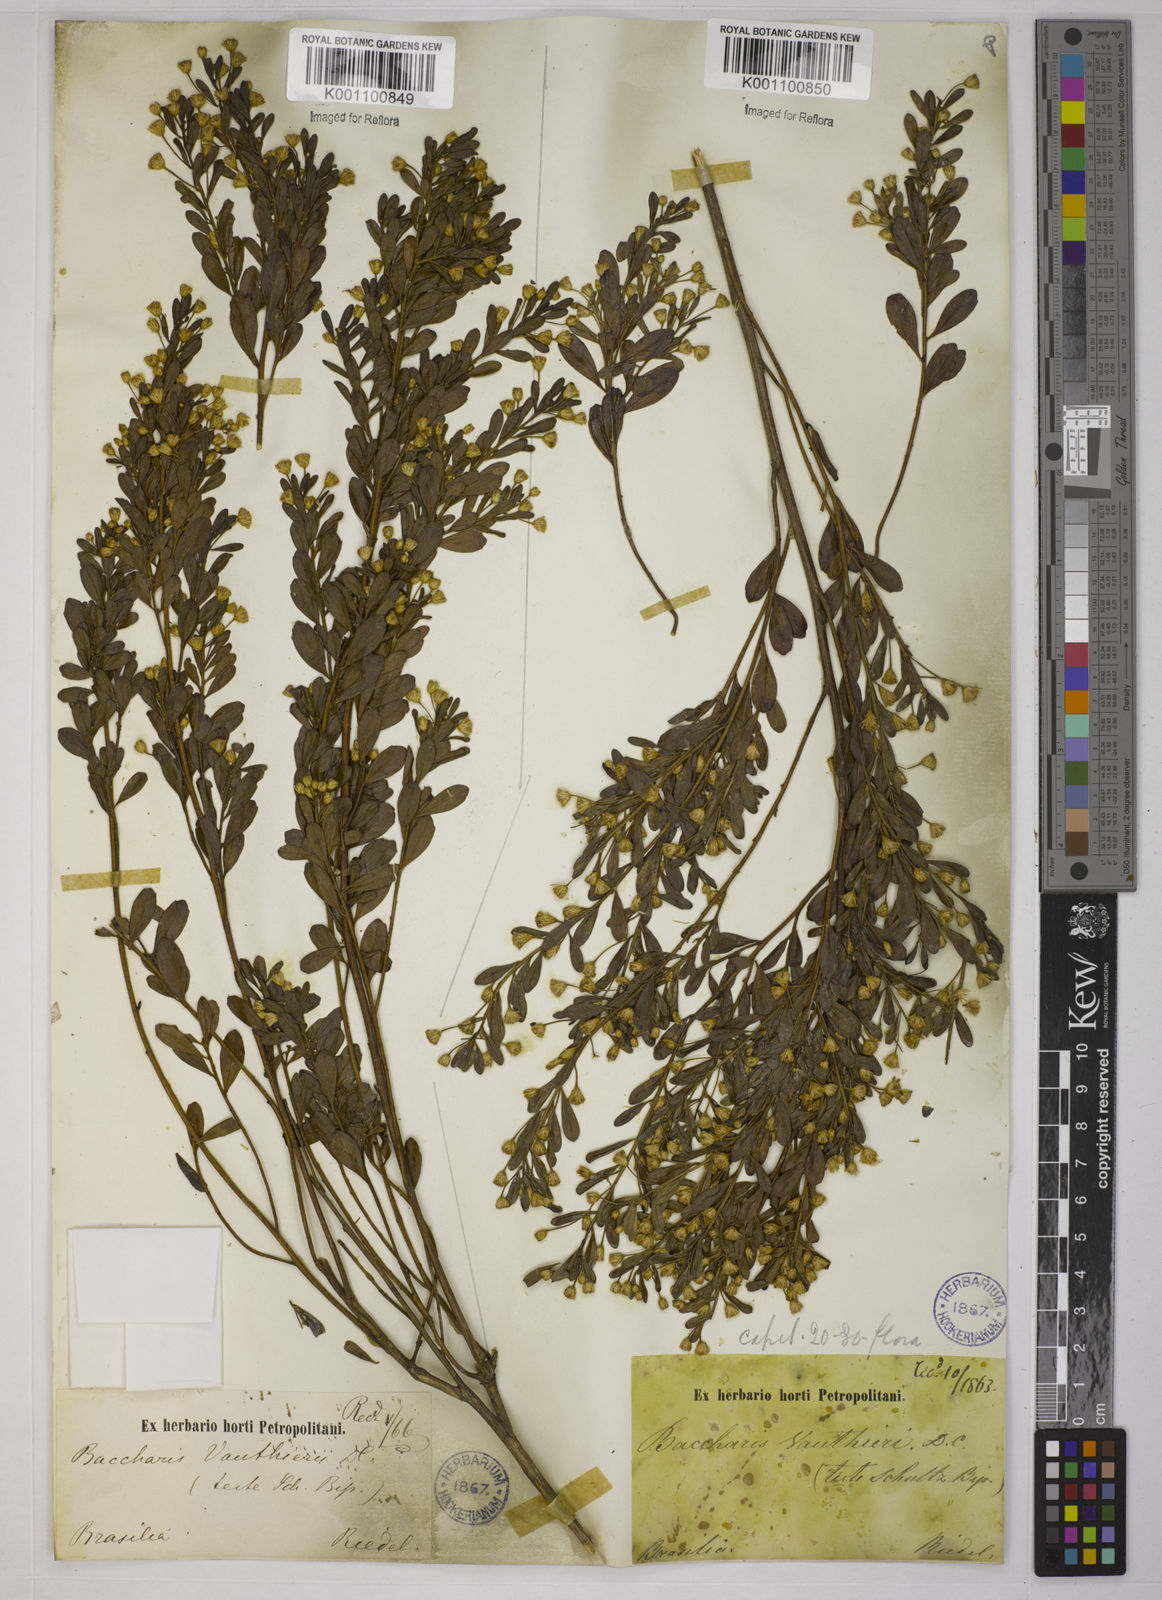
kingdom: Plantae
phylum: Tracheophyta
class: Magnoliopsida
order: Asterales
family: Asteraceae
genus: Baccharis
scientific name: Baccharis reticularia
